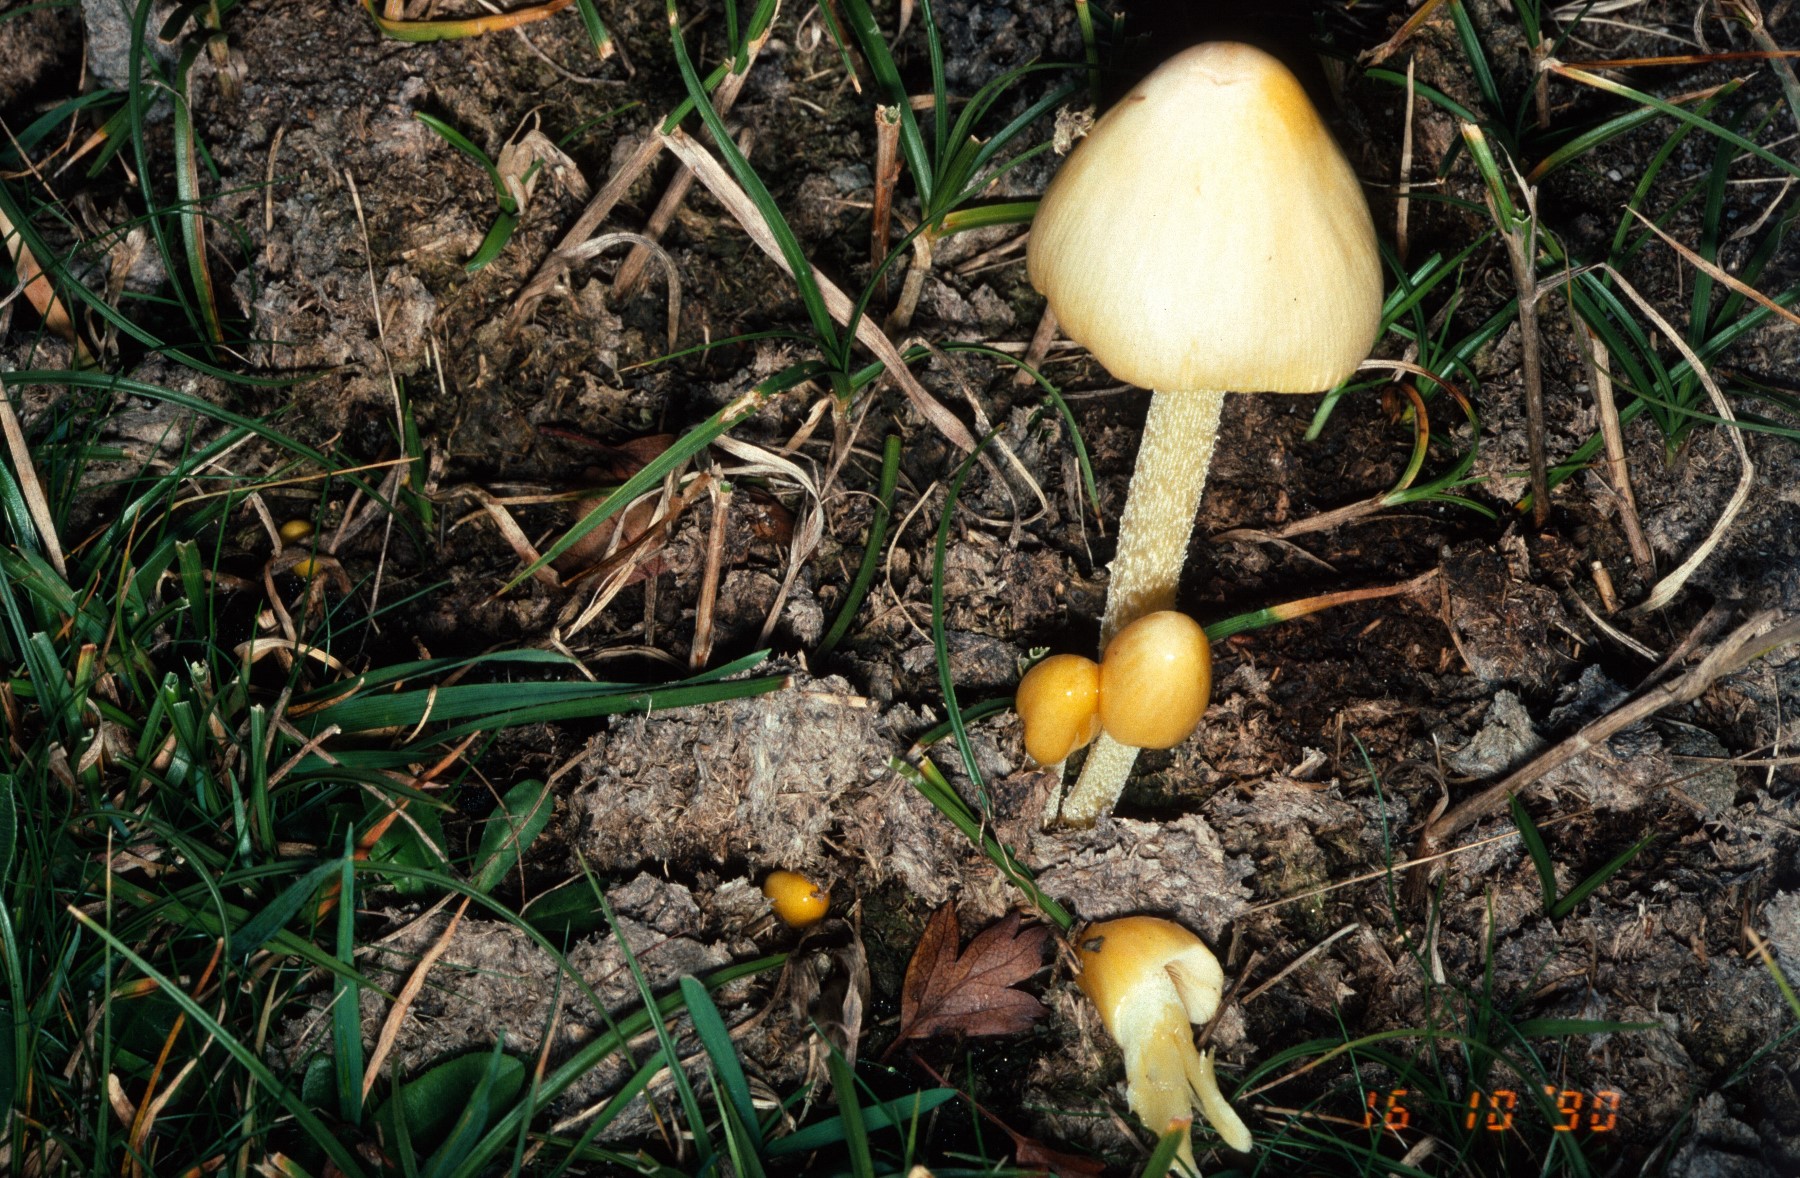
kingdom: Fungi
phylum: Basidiomycota
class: Agaricomycetes
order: Agaricales
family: Bolbitiaceae
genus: Bolbitius
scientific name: Bolbitius titubans
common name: almindelig gulhat
